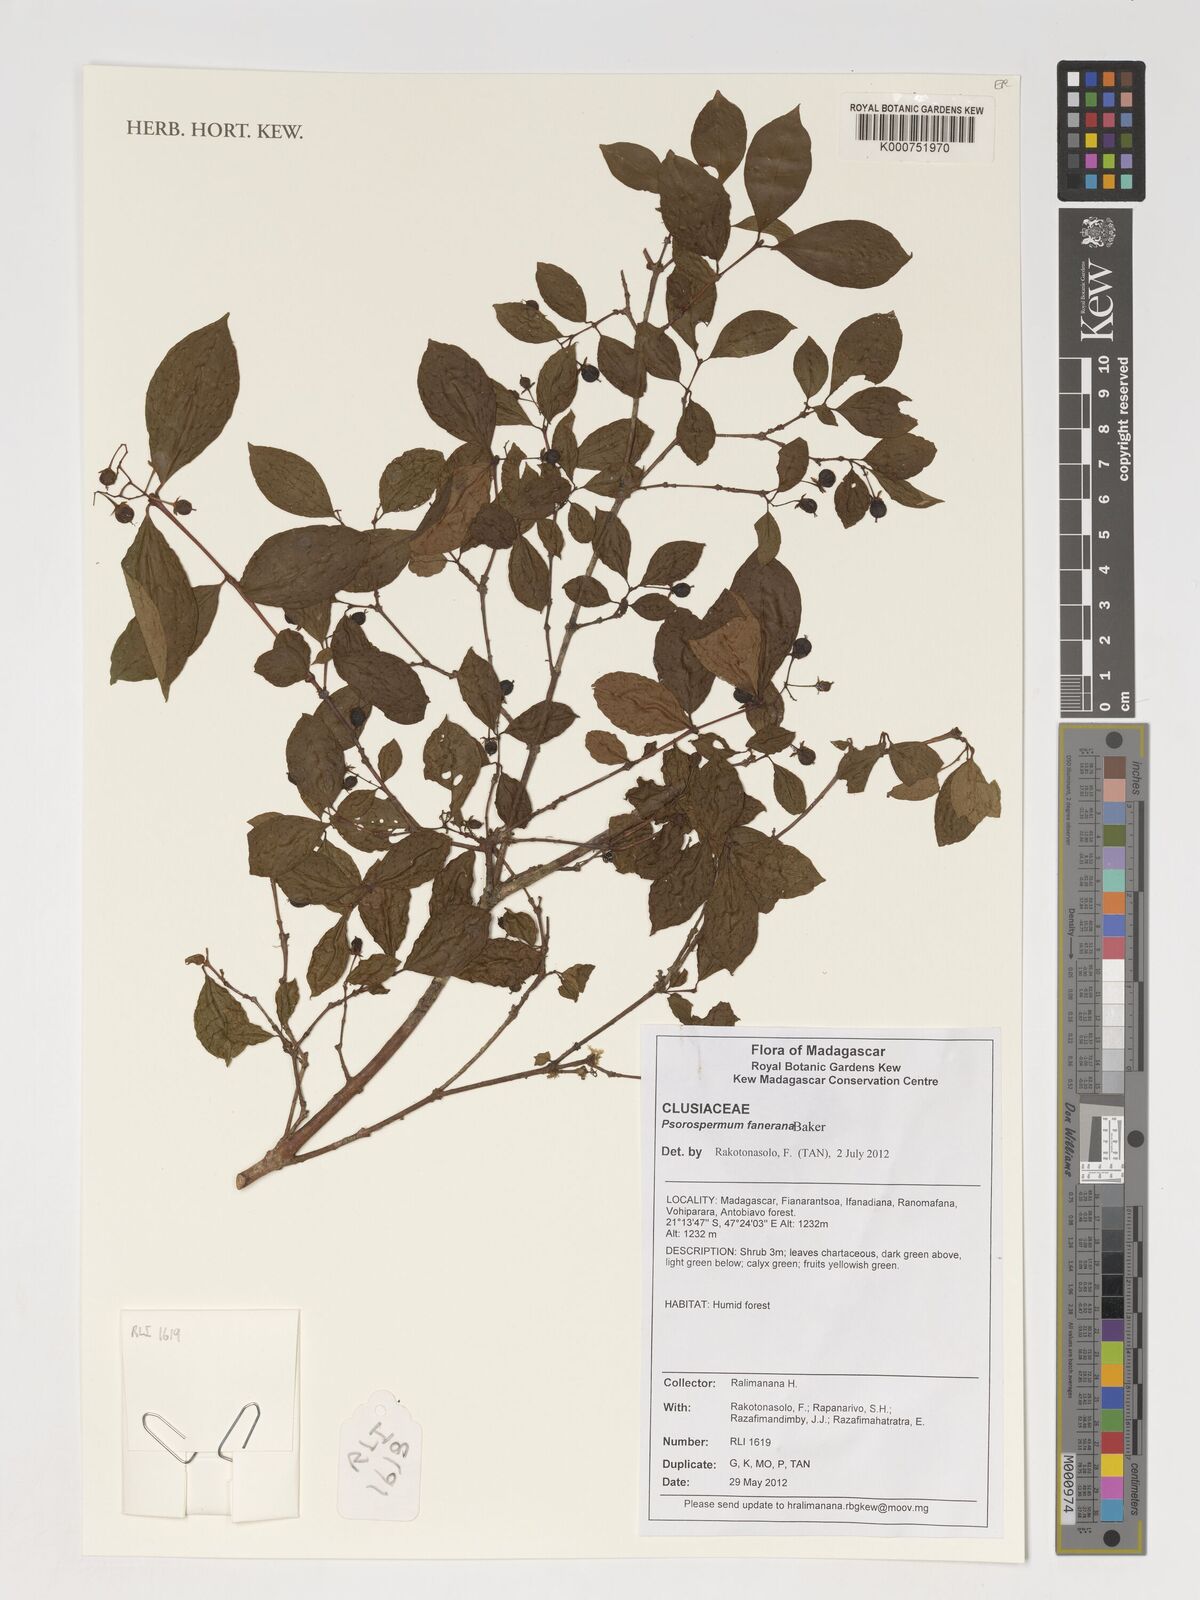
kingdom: Plantae
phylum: Tracheophyta
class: Magnoliopsida
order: Malpighiales
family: Hypericaceae
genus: Psorospermum
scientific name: Psorospermum fanerana
